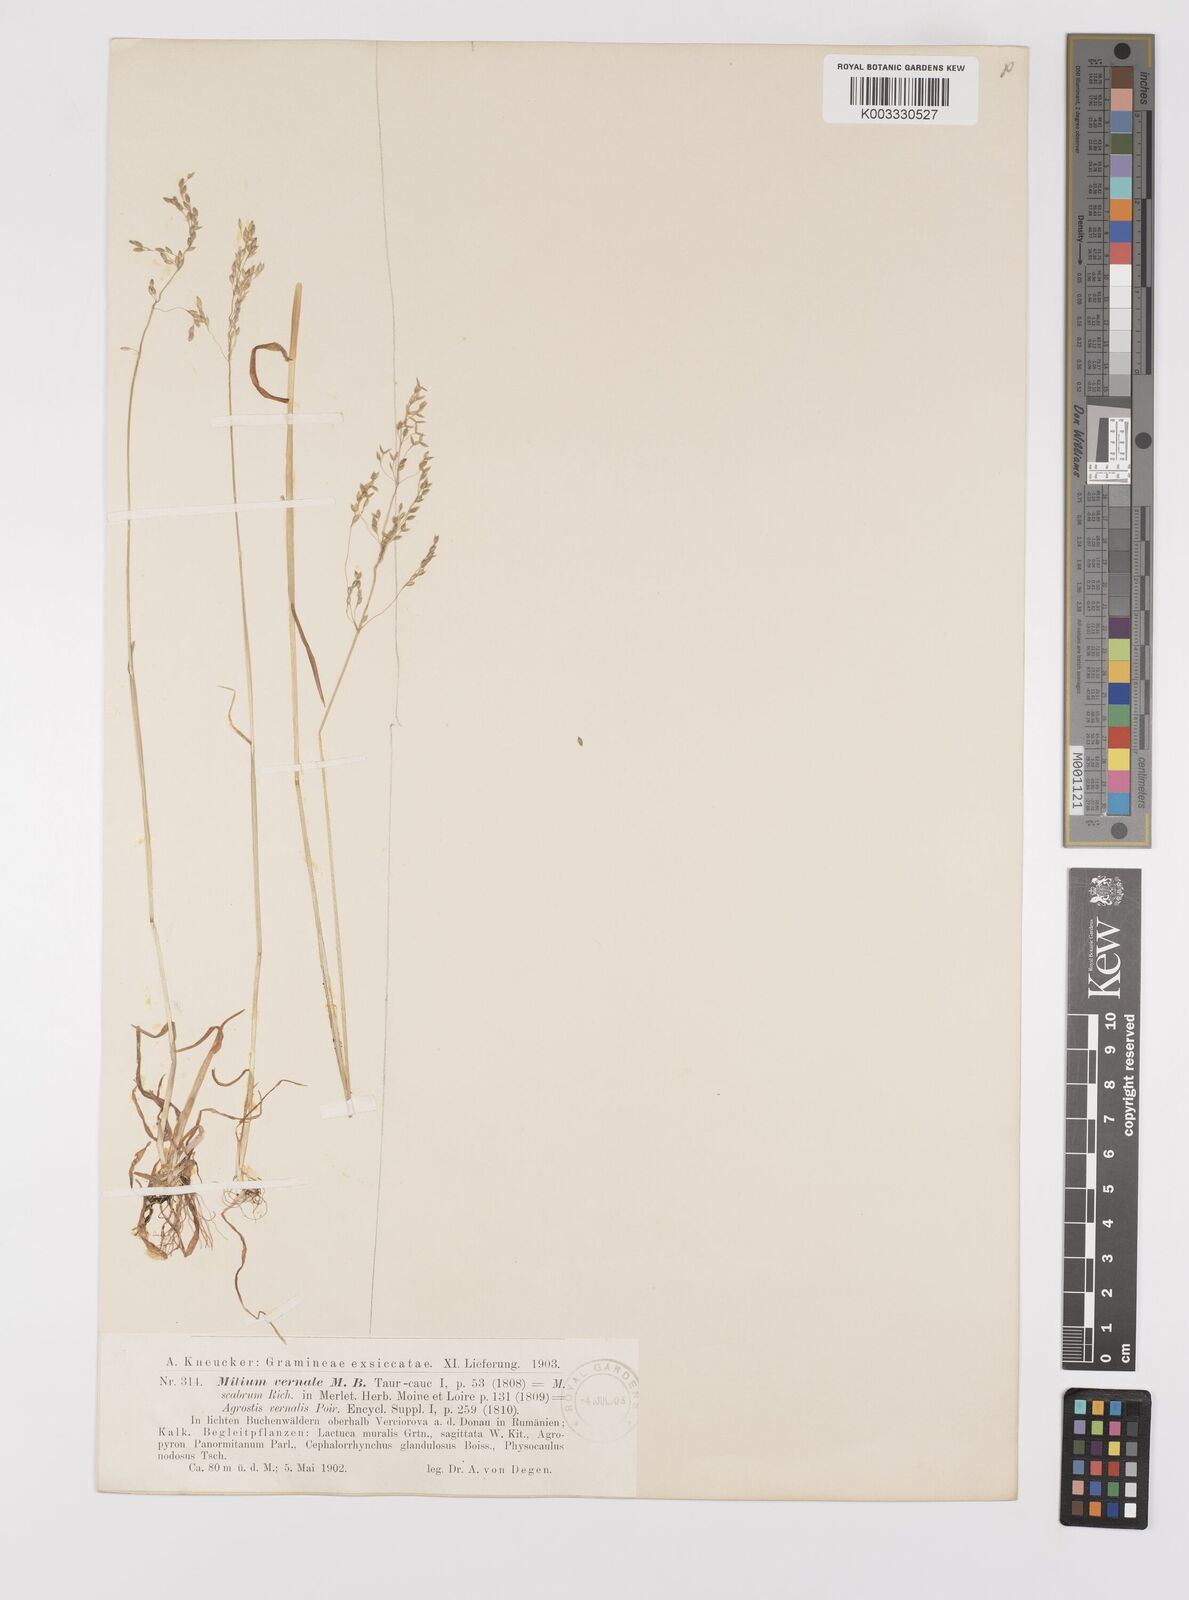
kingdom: Plantae
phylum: Tracheophyta
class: Liliopsida
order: Poales
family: Poaceae
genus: Milium
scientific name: Milium vernale
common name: Early millet
